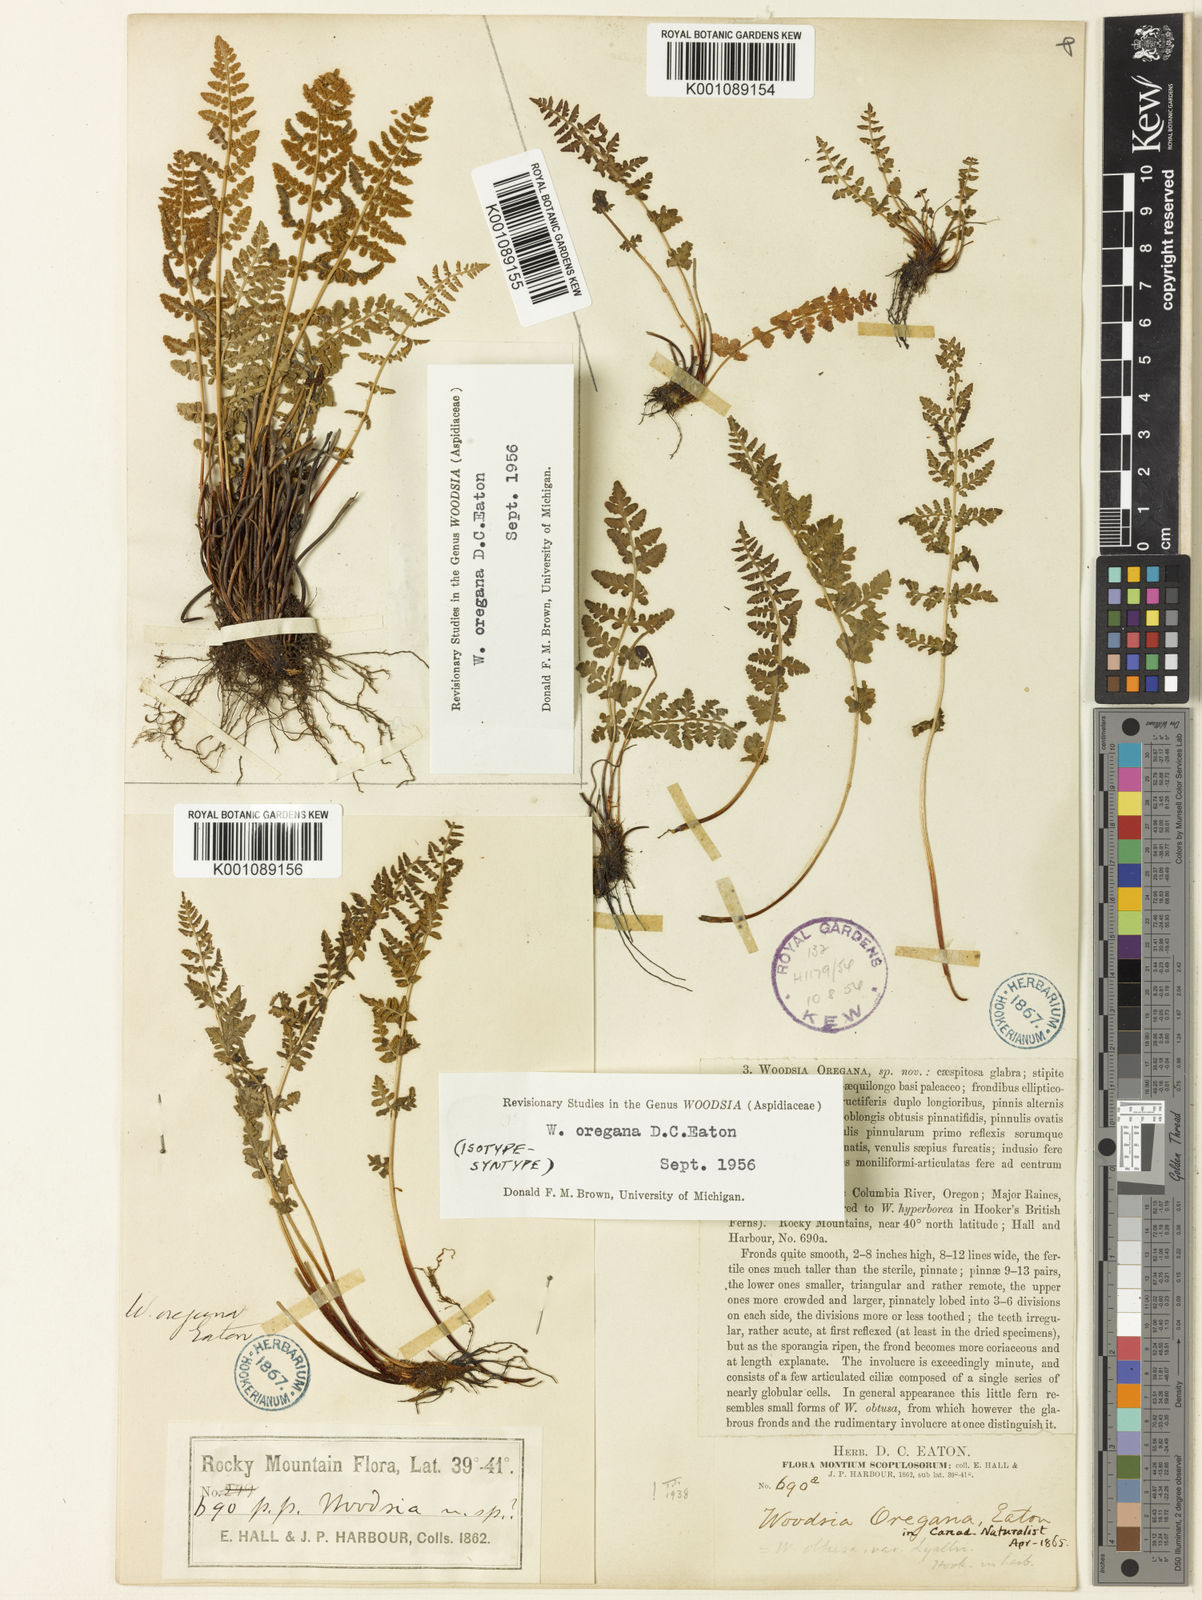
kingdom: Plantae
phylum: Tracheophyta
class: Polypodiopsida
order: Polypodiales
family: Woodsiaceae
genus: Physematium
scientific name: Physematium oreganum
